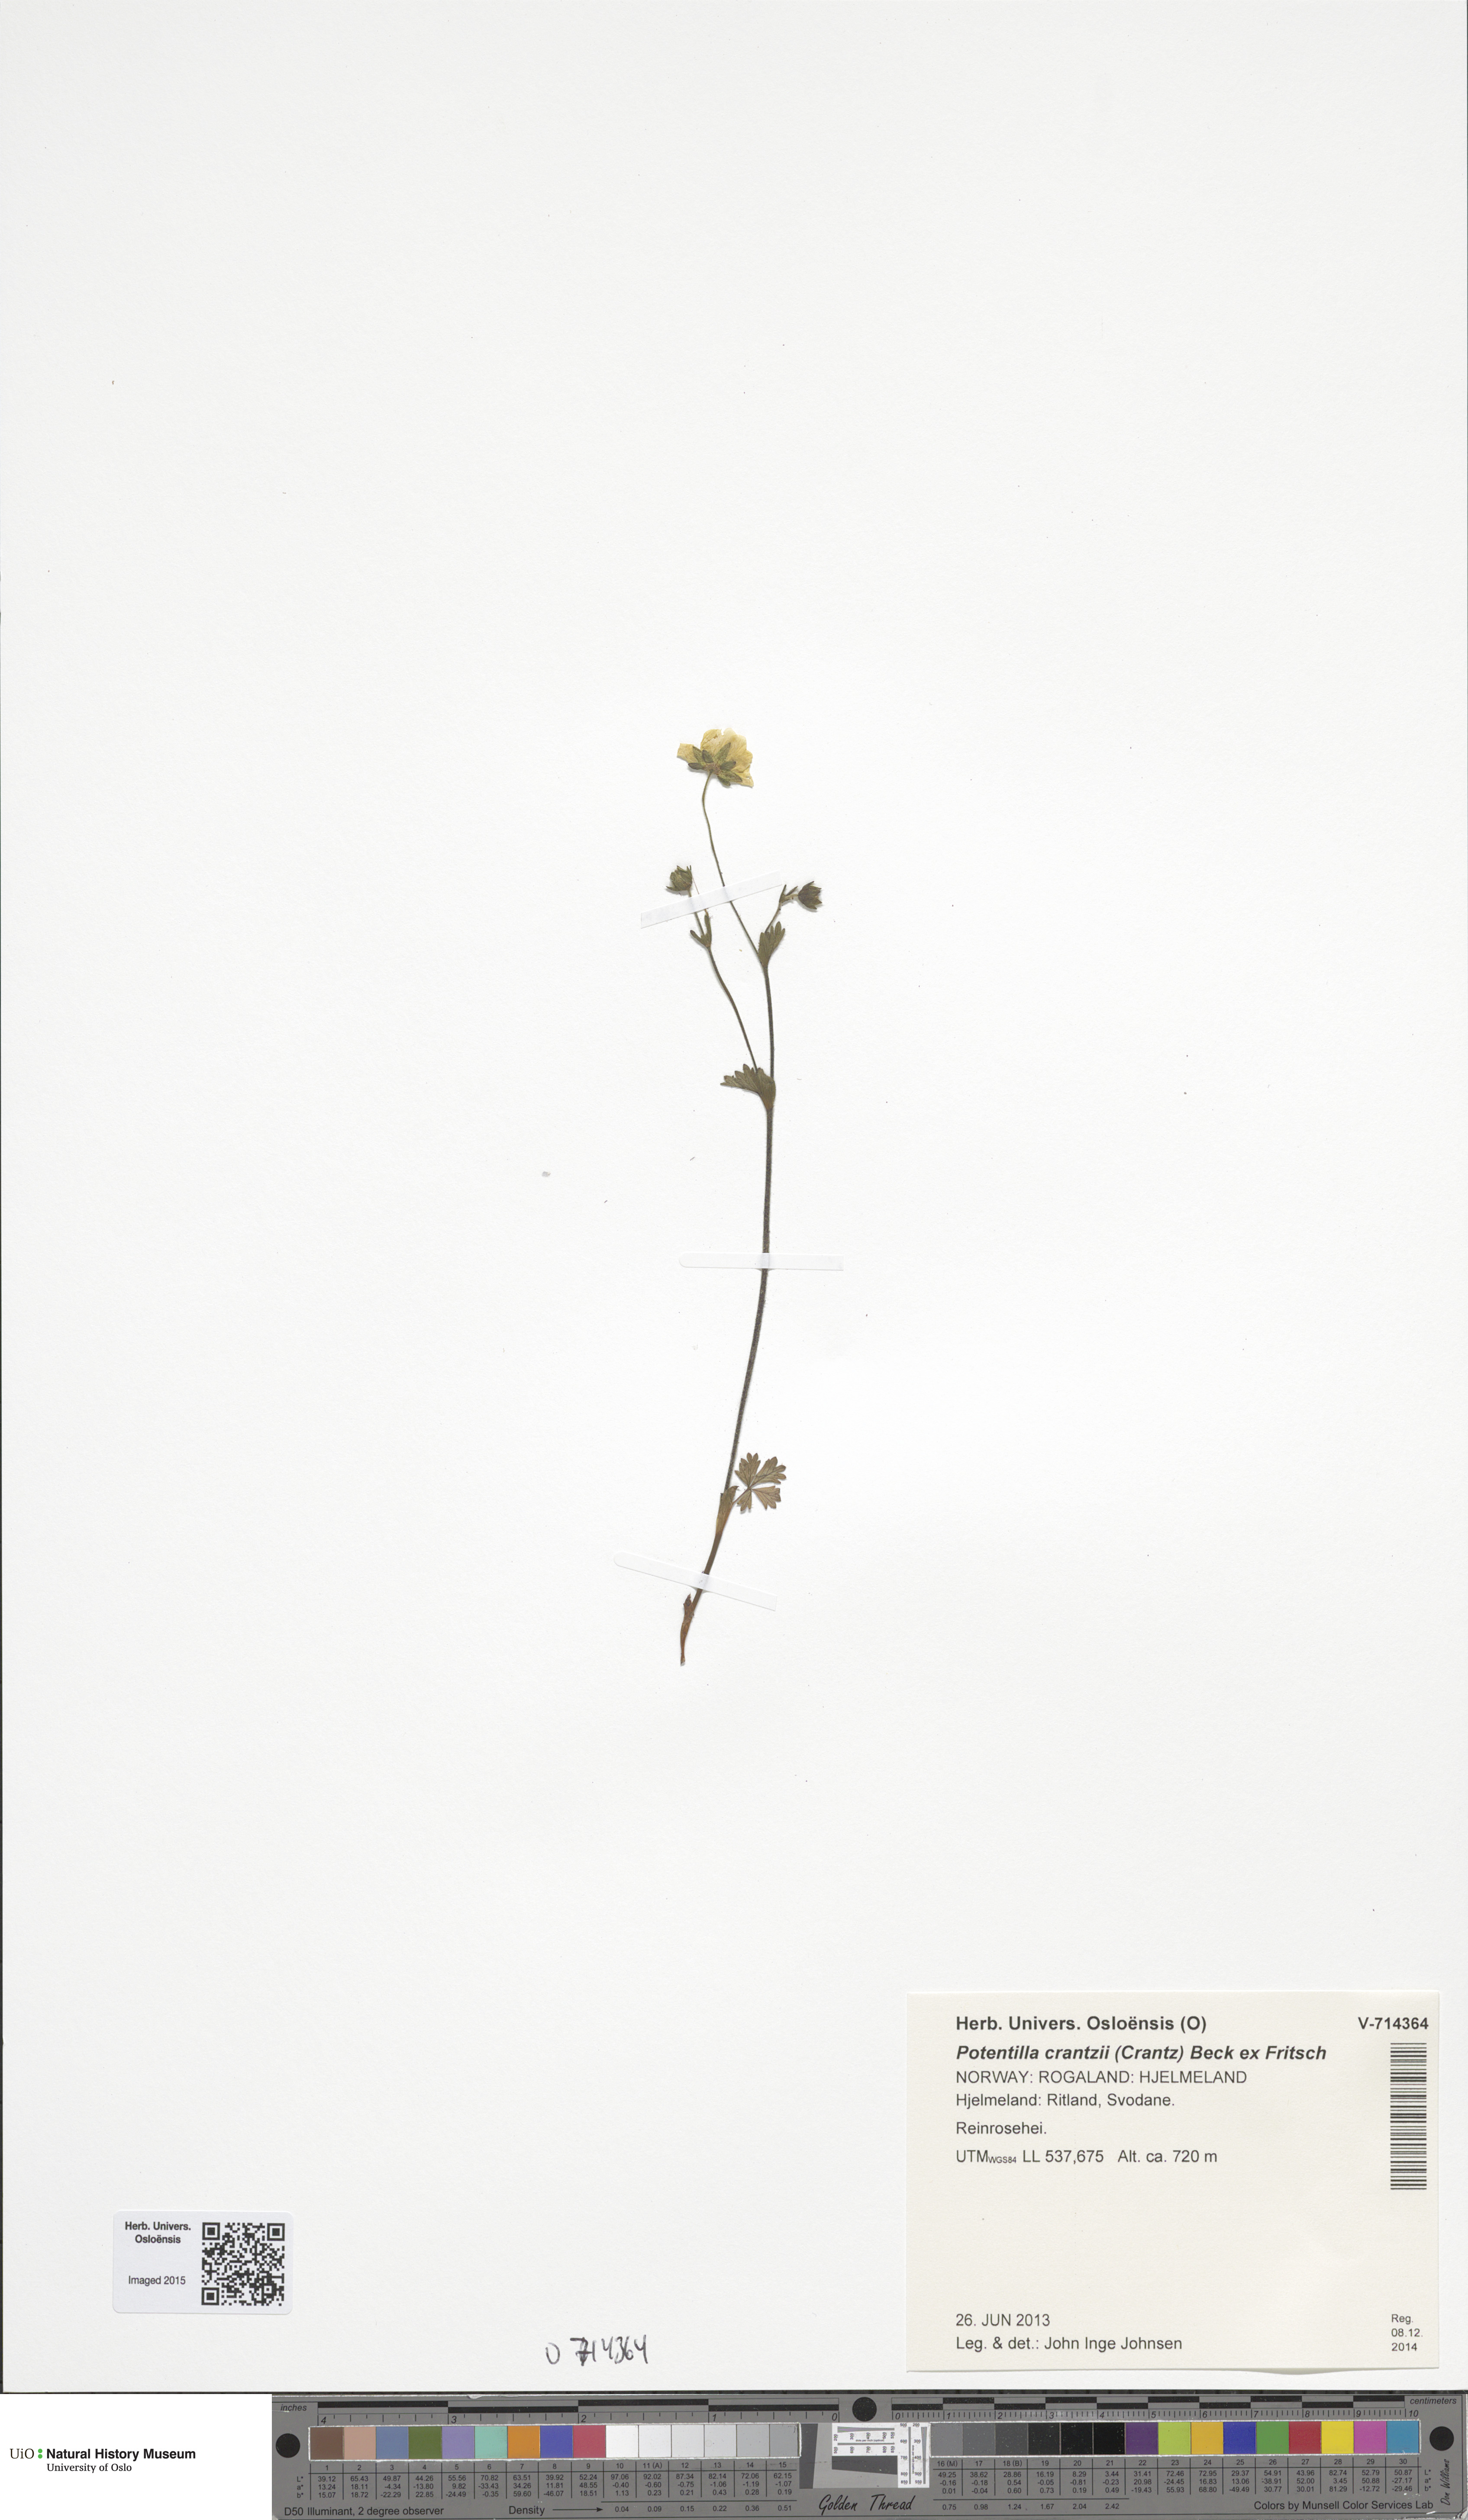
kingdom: Plantae
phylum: Tracheophyta
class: Magnoliopsida
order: Rosales
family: Rosaceae
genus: Potentilla
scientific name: Potentilla crantzii
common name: Alpine cinquefoil
